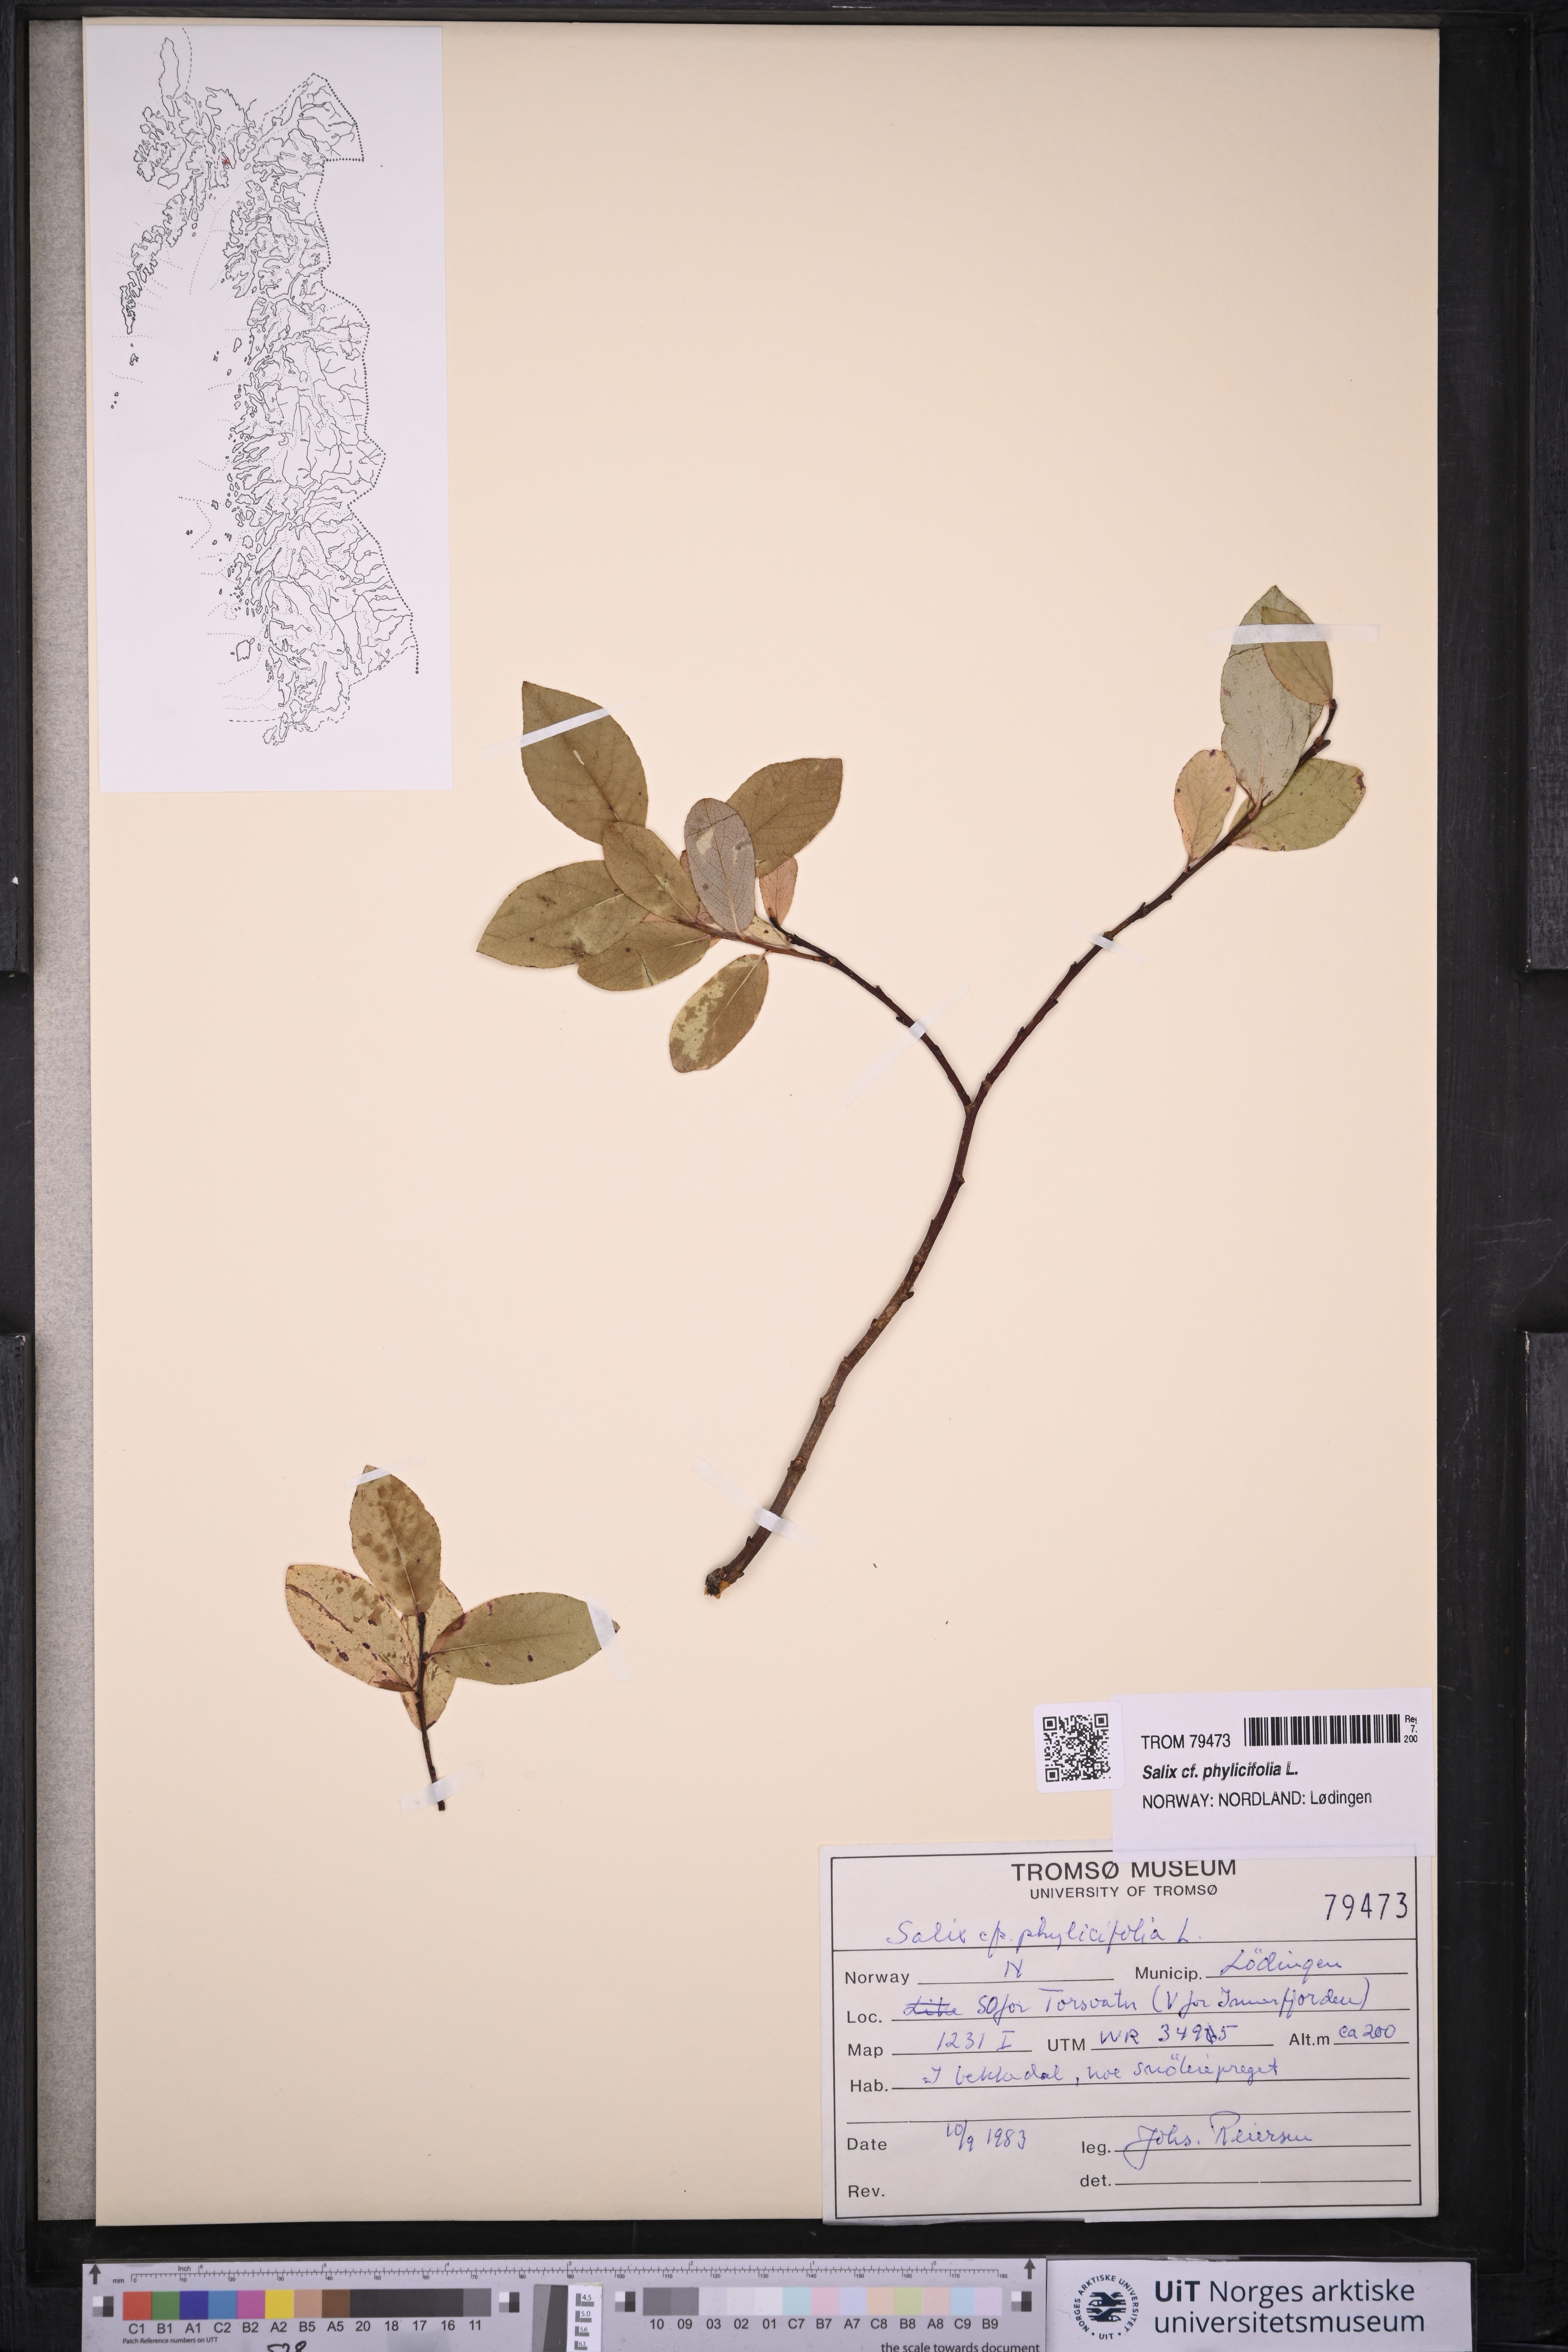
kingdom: Plantae
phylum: Tracheophyta
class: Magnoliopsida
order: Malpighiales
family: Salicaceae
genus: Salix
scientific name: Salix phylicifolia
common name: Tea-leaved willow
